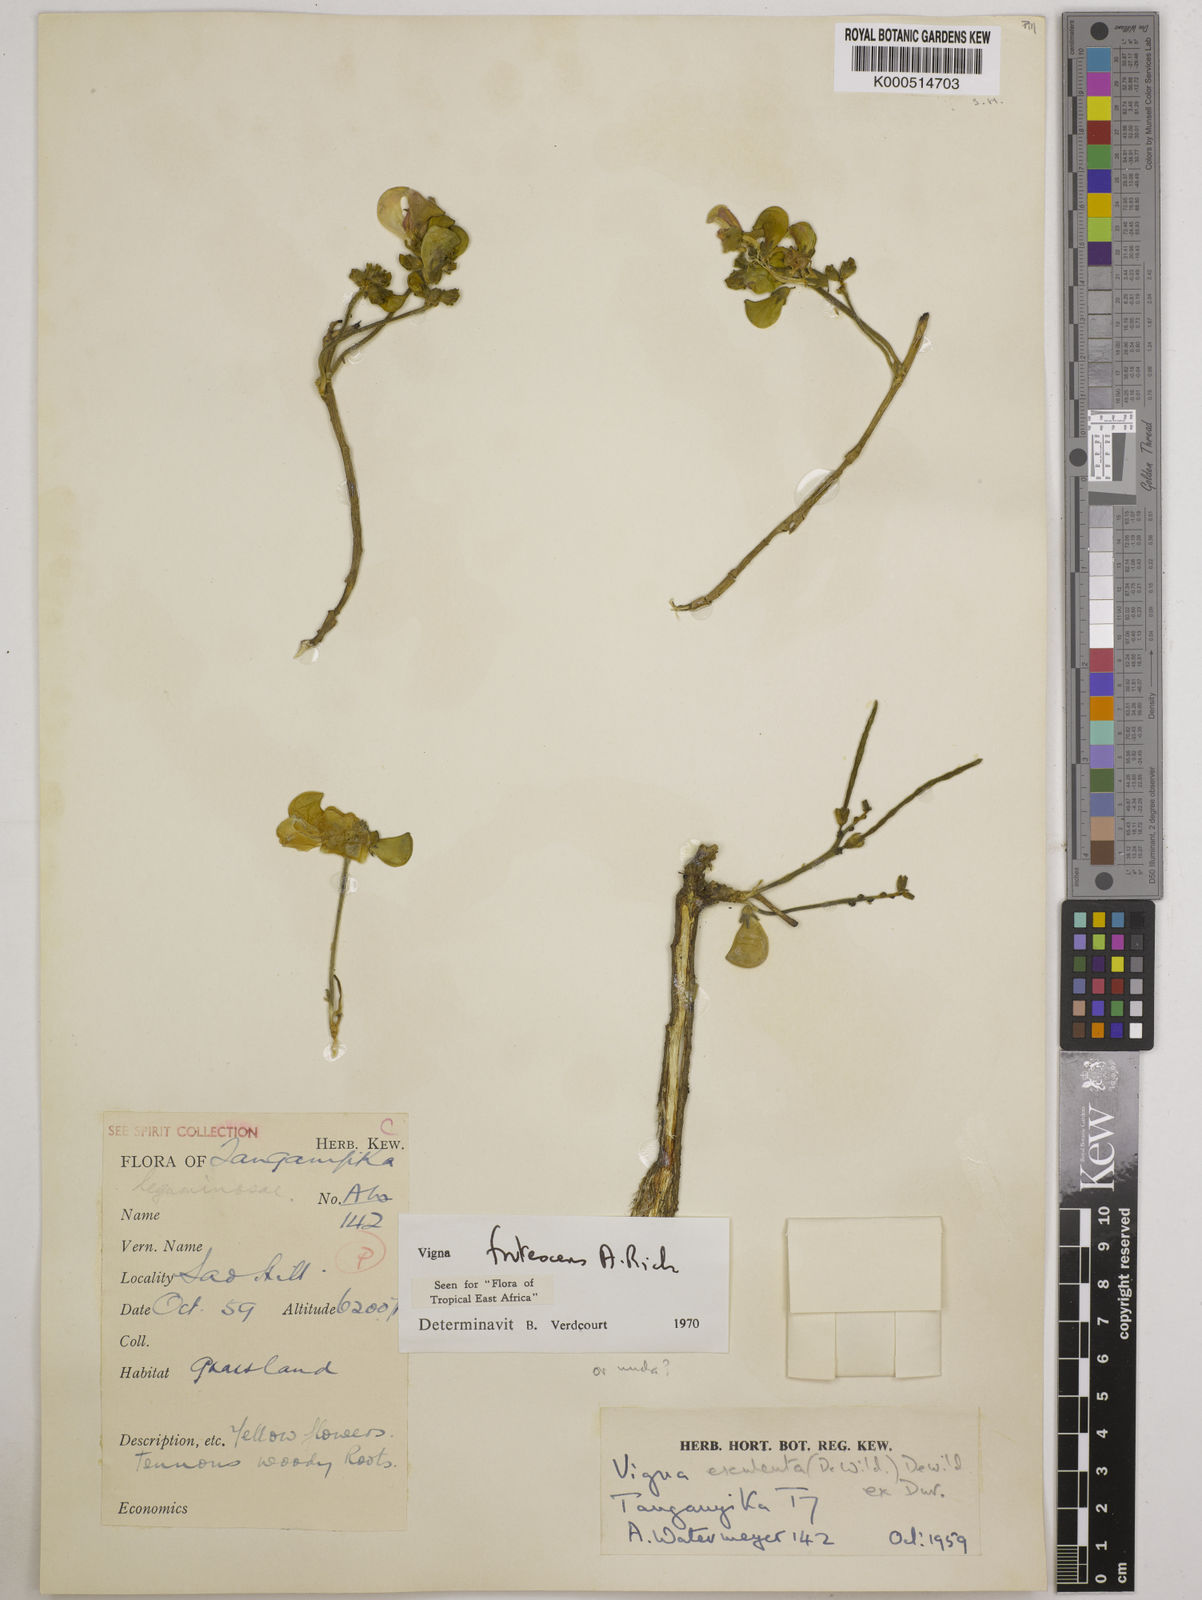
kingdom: Plantae
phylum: Tracheophyta
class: Magnoliopsida
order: Fabales
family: Fabaceae
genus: Vigna
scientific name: Vigna frutescens
